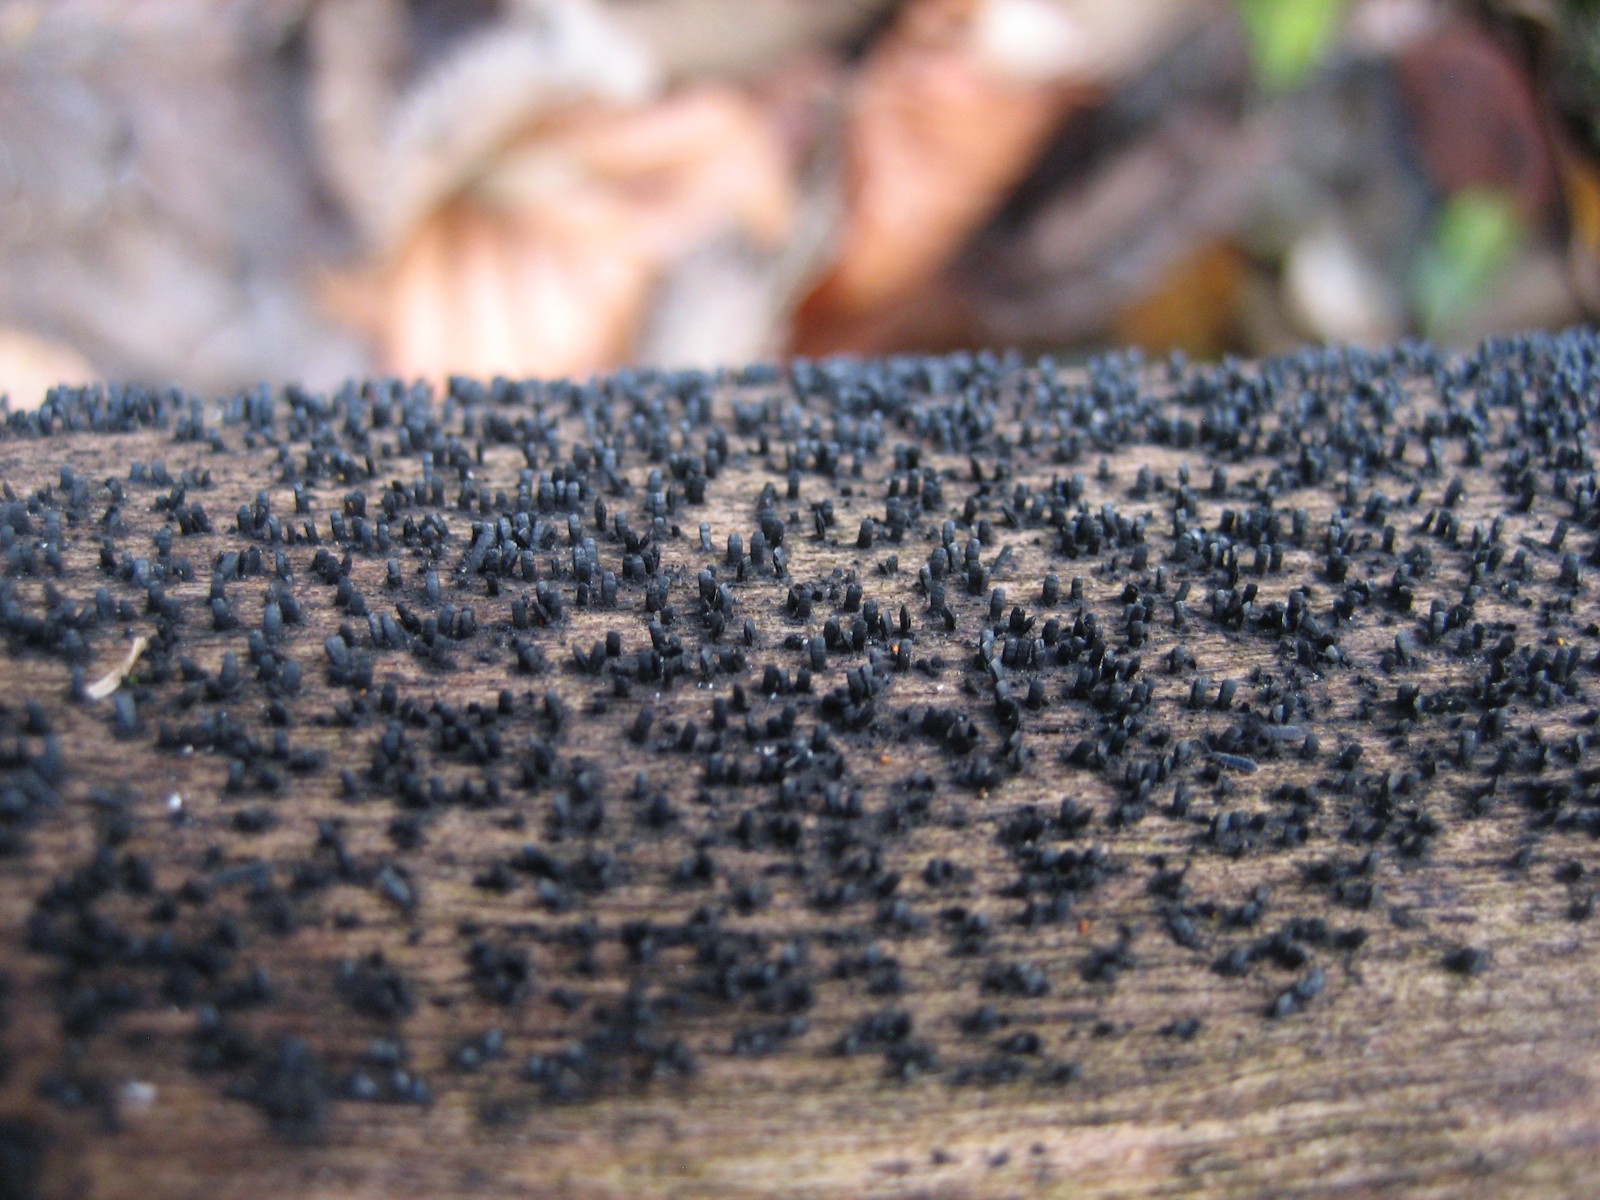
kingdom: Fungi
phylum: Ascomycota
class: Eurotiomycetes
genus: Glyphium
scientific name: Glyphium elatum
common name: kuløkse
